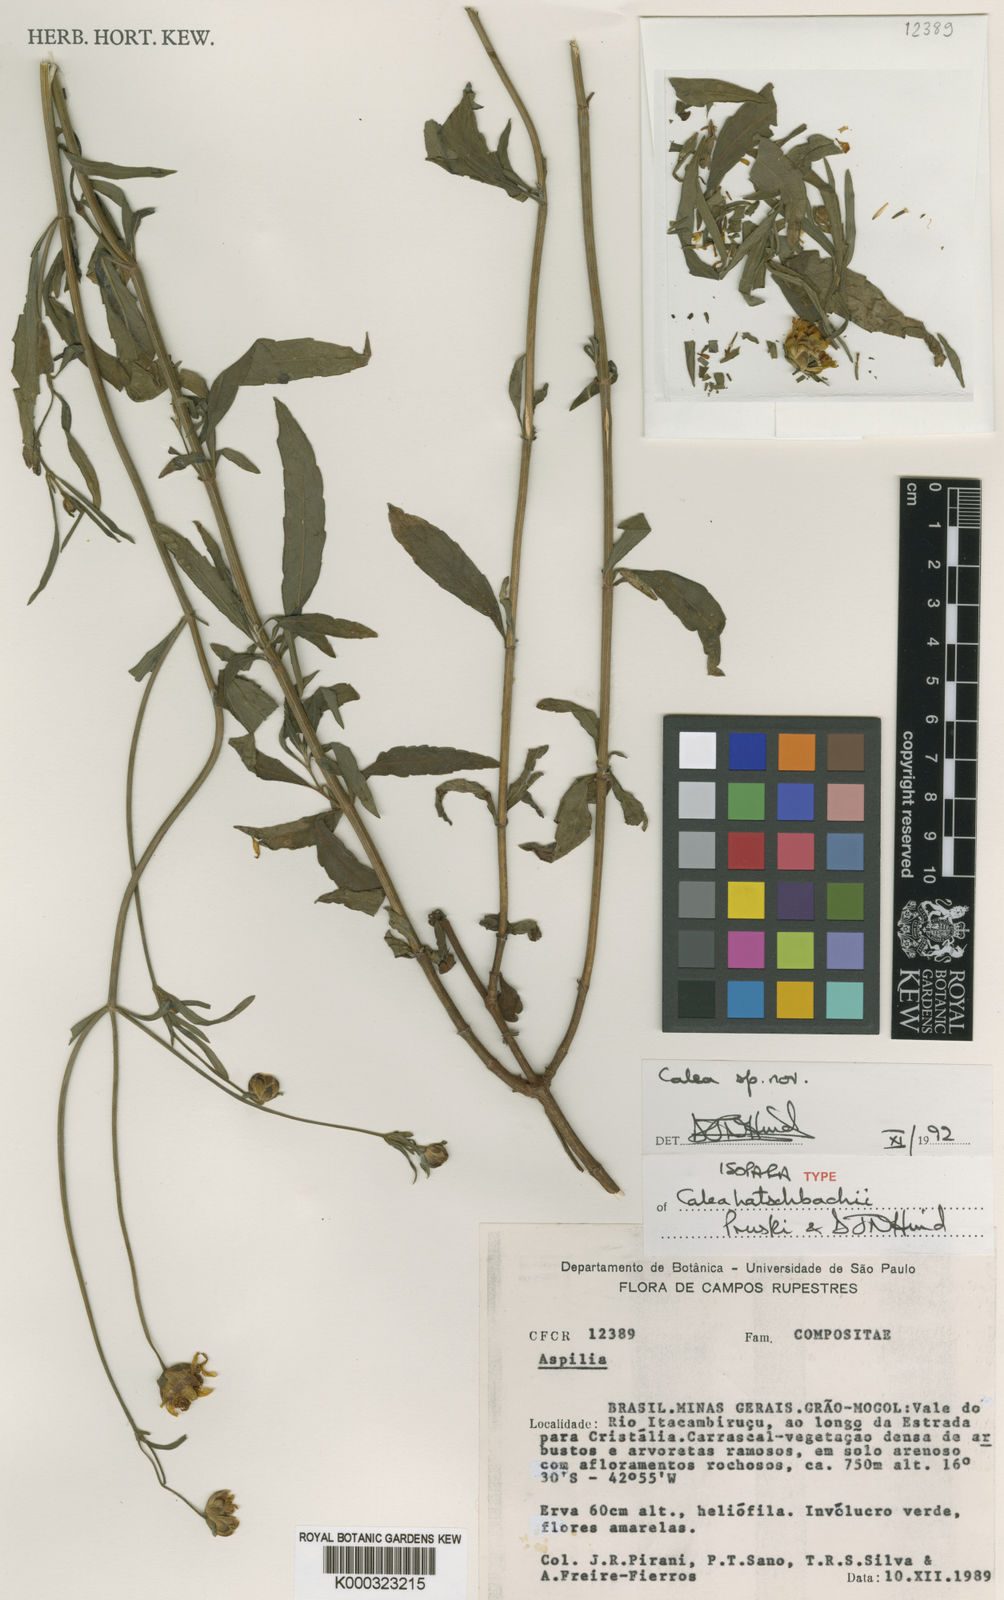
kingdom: Plantae
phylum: Tracheophyta
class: Magnoliopsida
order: Asterales
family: Asteraceae
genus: Calea
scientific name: Calea hatschbachii
